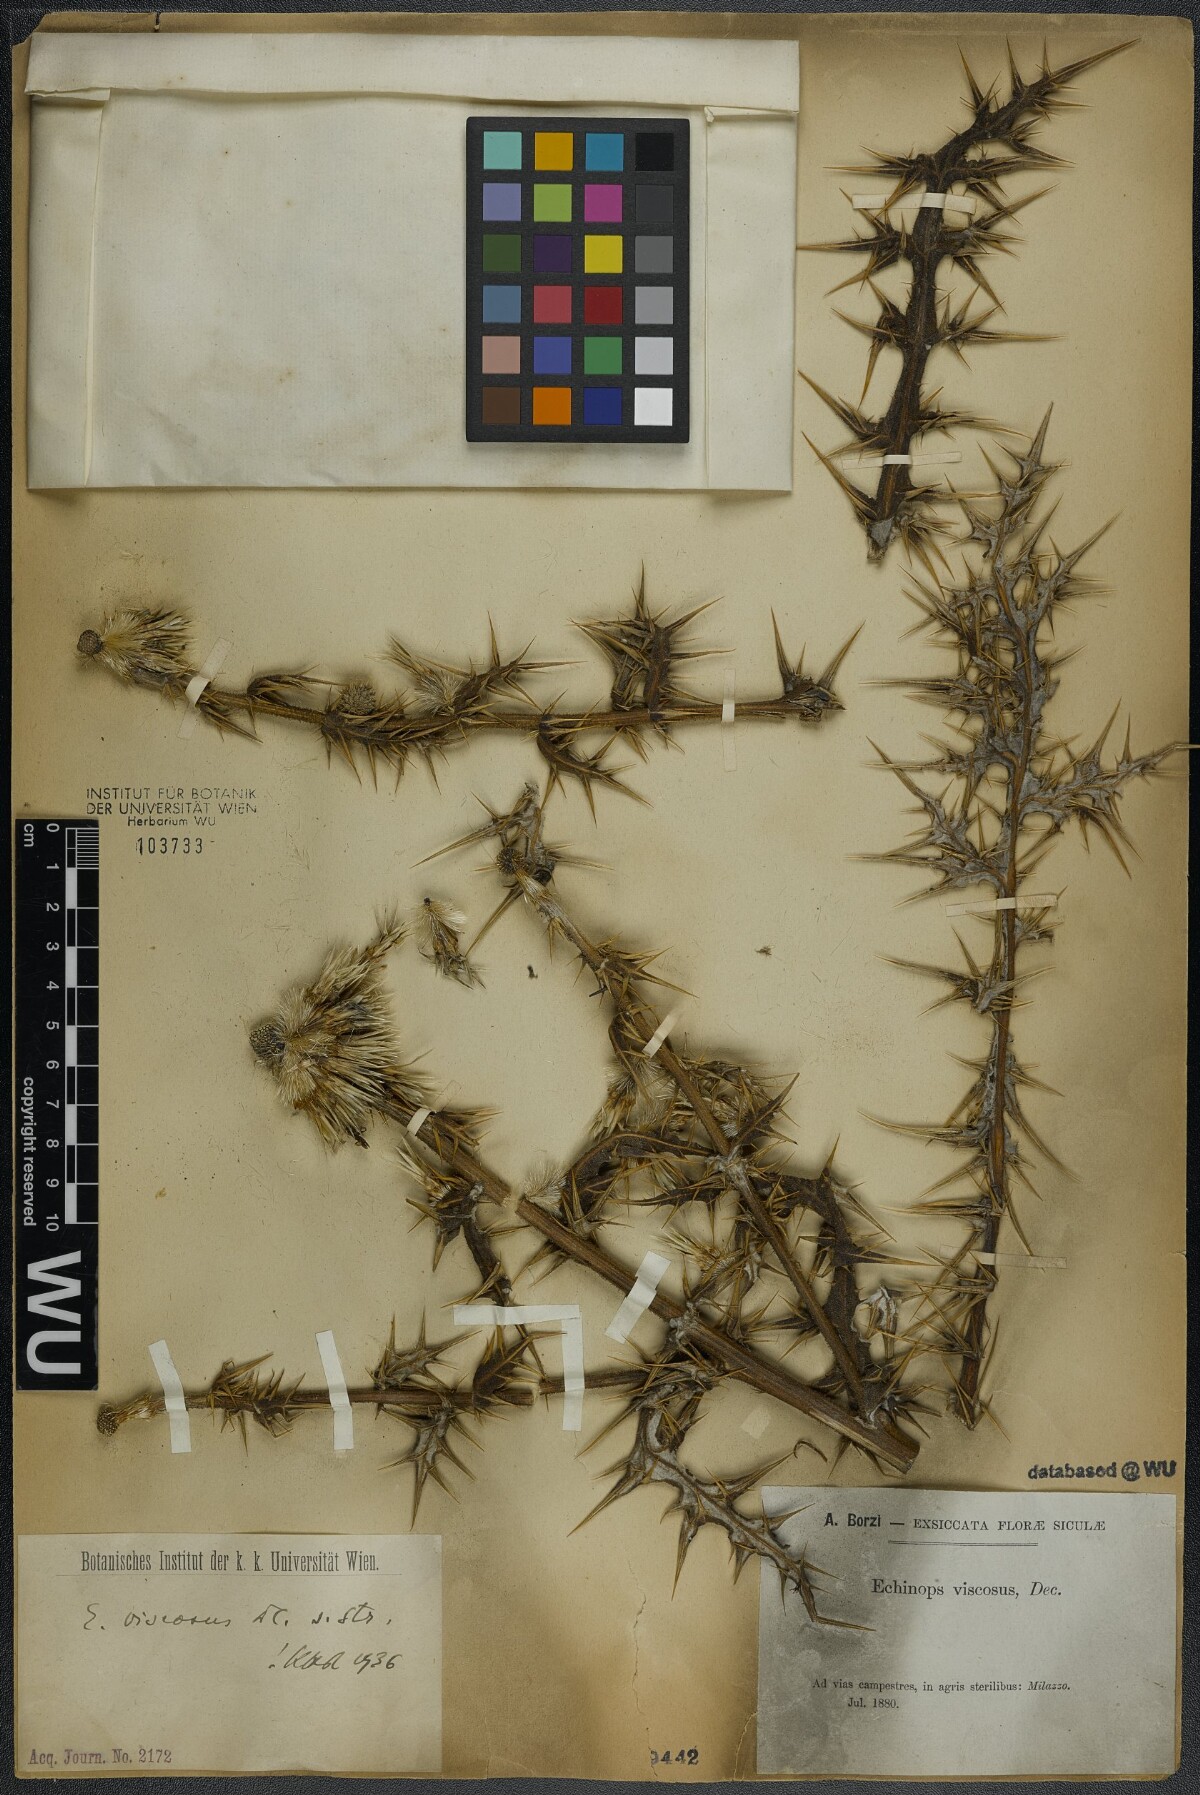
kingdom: Plantae
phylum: Tracheophyta
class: Magnoliopsida
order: Asterales
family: Asteraceae
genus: Echinops
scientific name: Echinops spinosissimus
